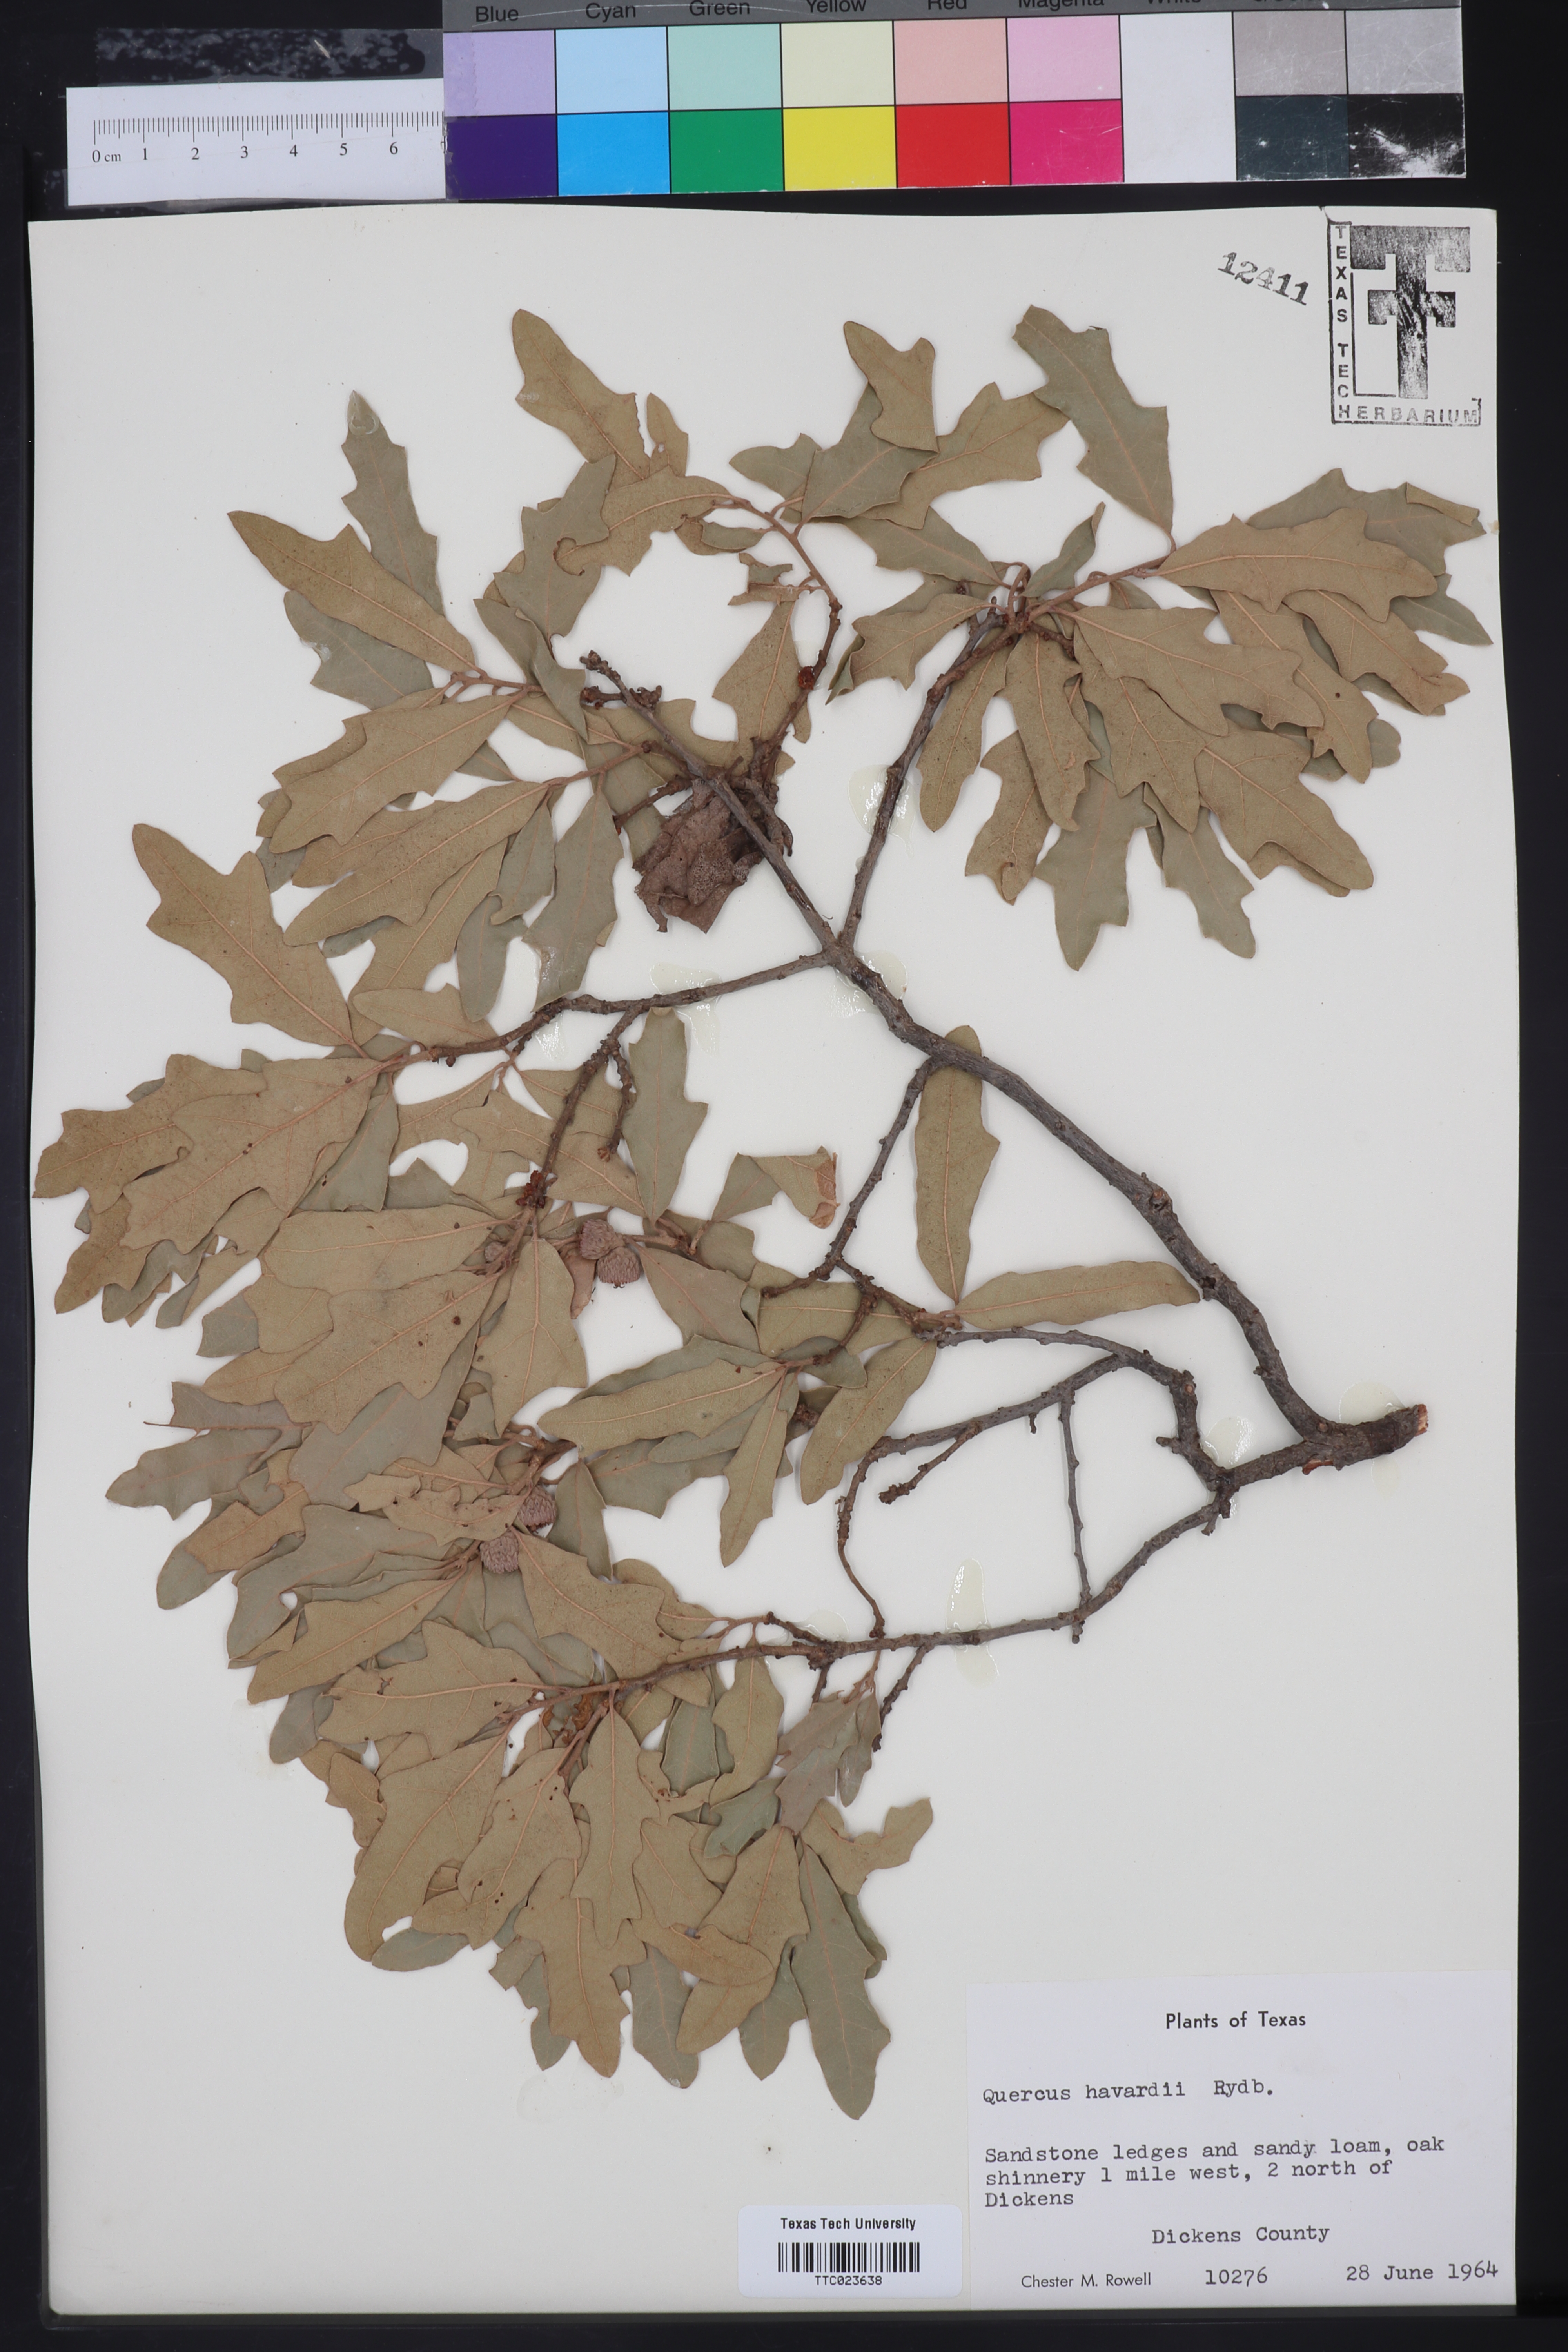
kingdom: Plantae
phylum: Tracheophyta
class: Magnoliopsida
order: Fagales
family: Fagaceae
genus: Quercus
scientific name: Quercus havardii
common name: Shinnery oak
